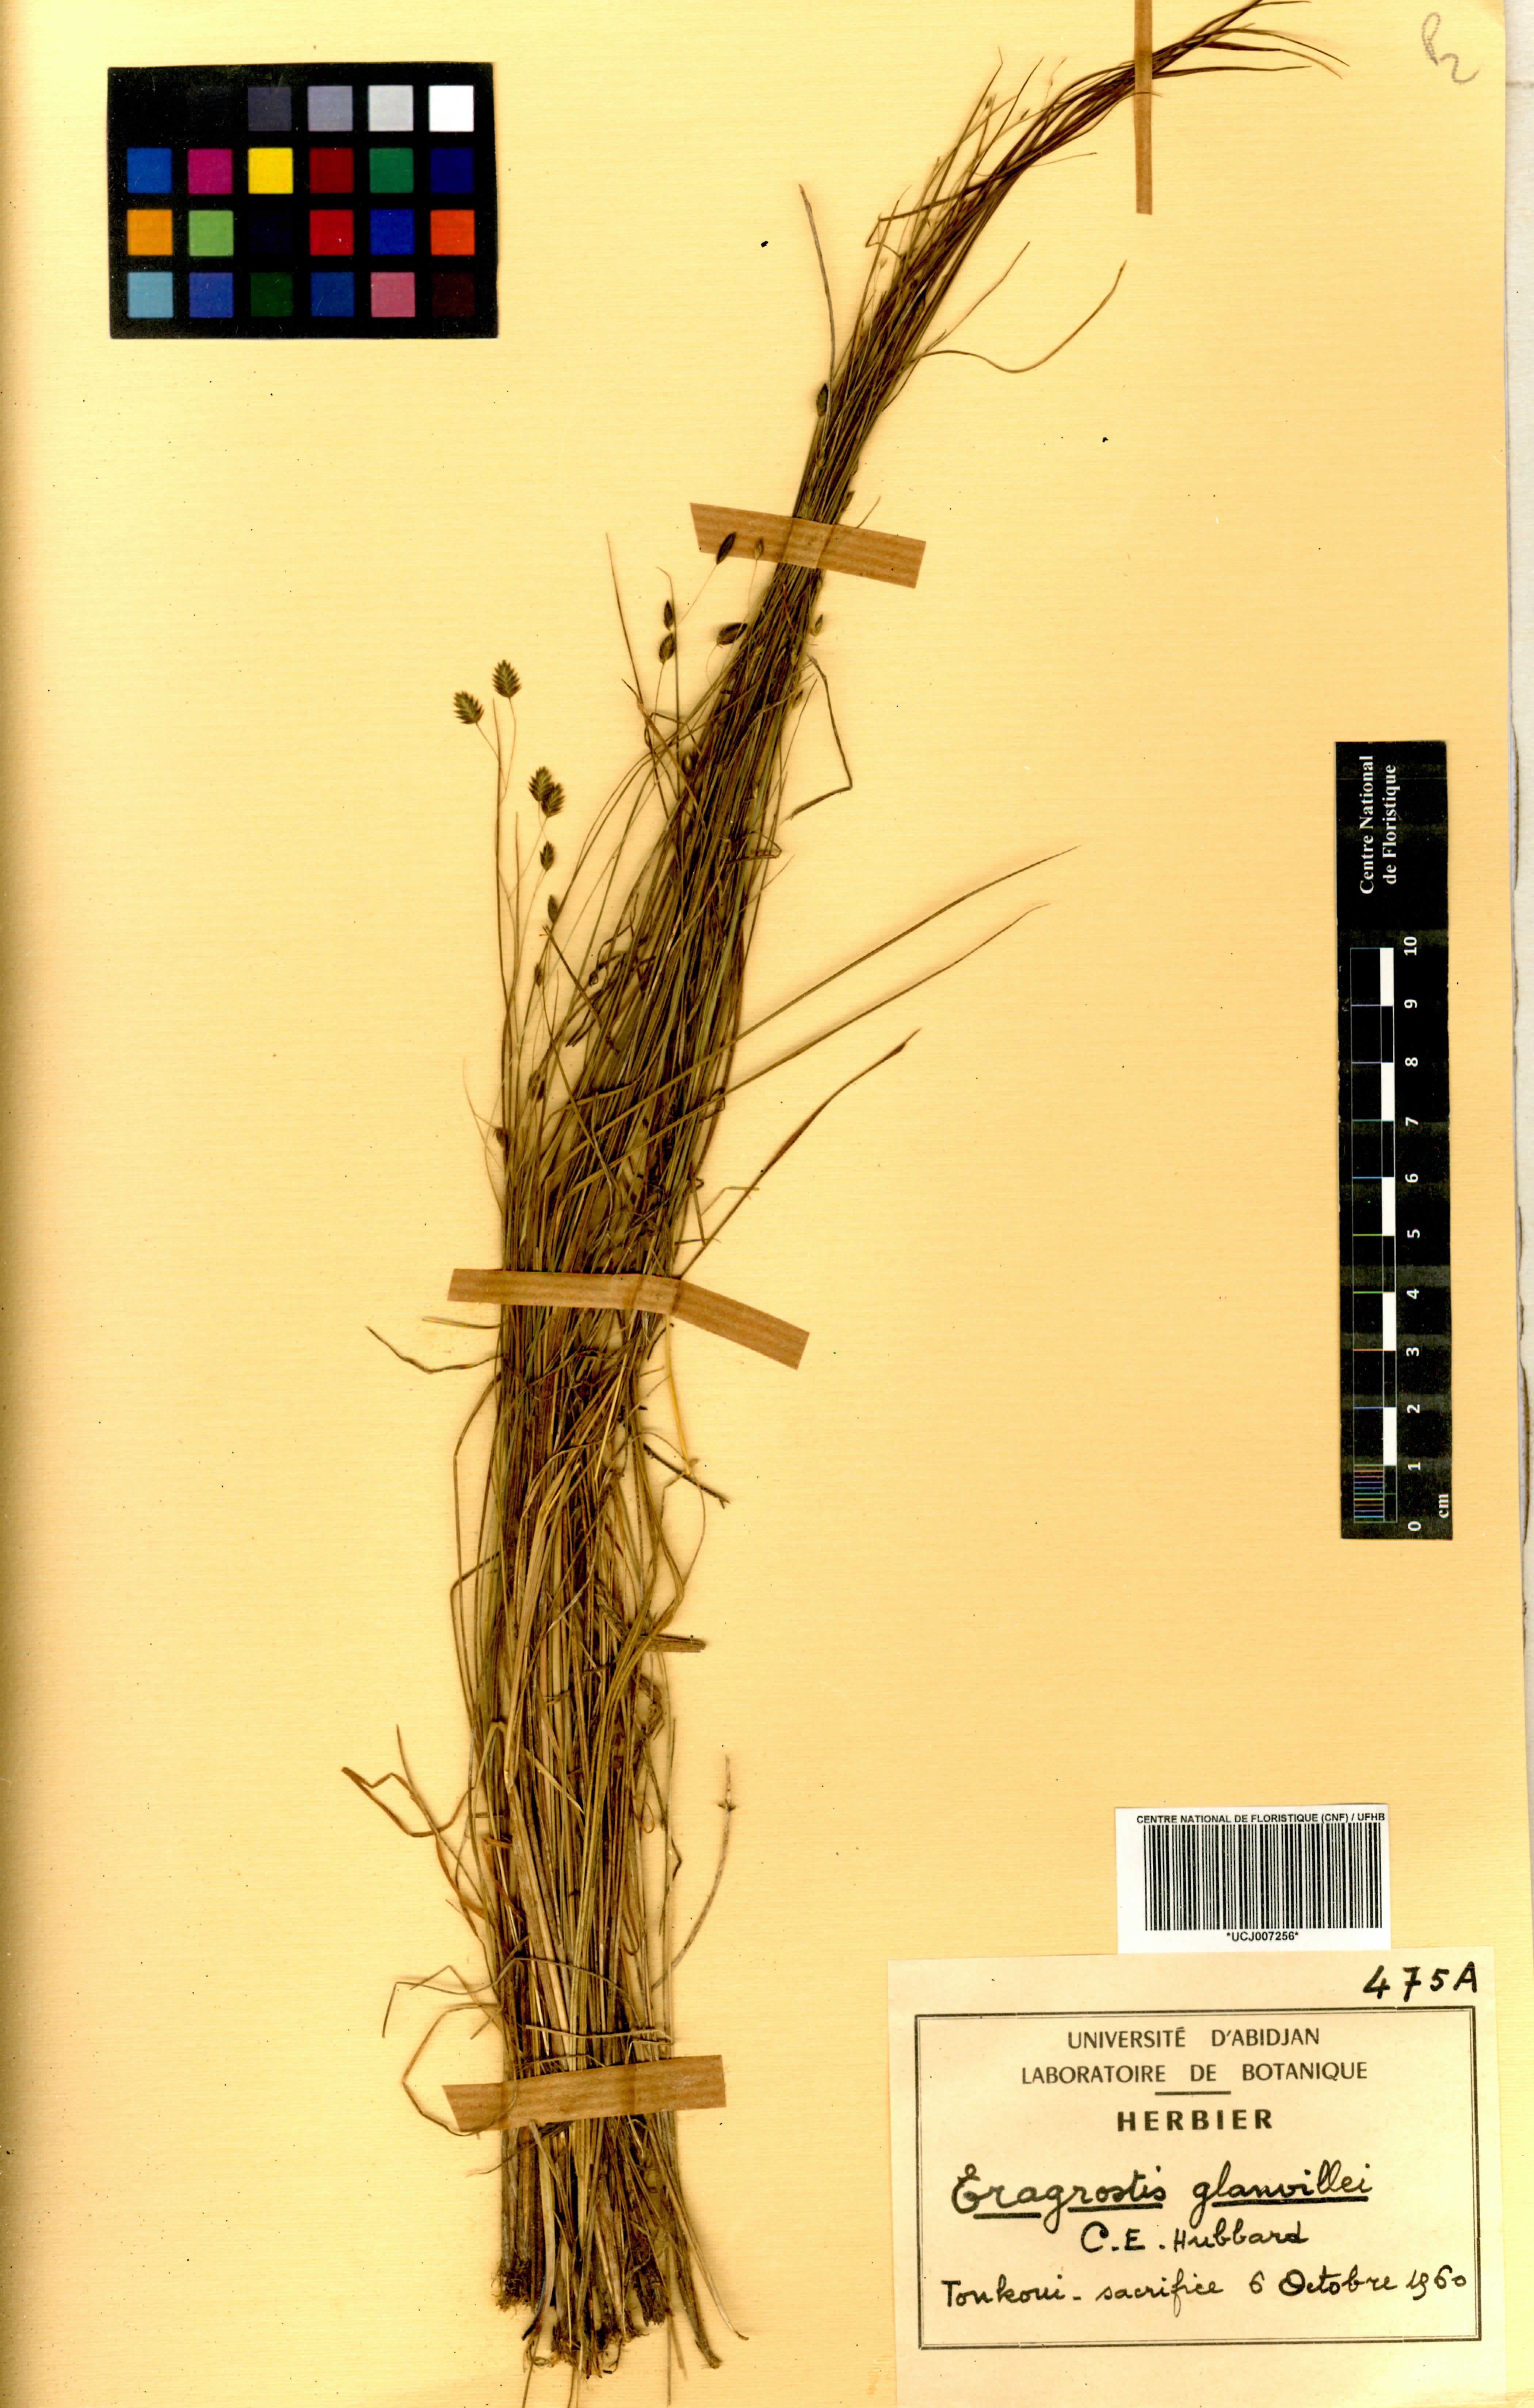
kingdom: Plantae
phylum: Tracheophyta
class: Liliopsida
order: Poales
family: Poaceae
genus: Eragrostis
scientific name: Eragrostis invalida
